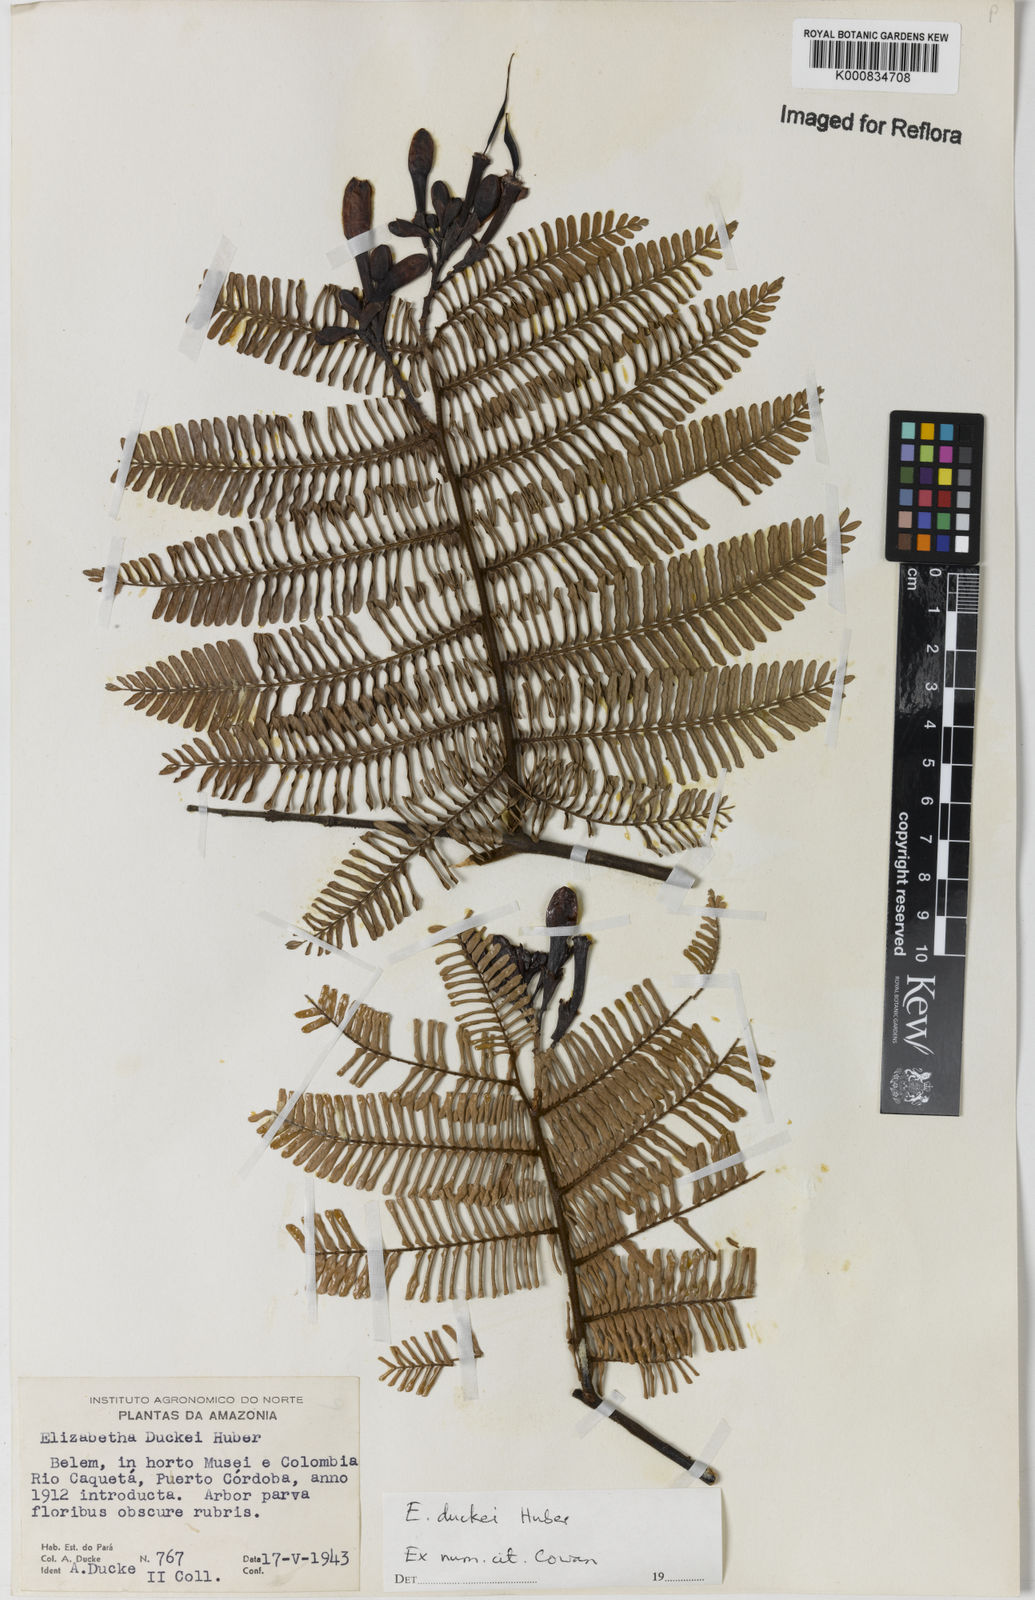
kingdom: Plantae
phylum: Tracheophyta
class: Magnoliopsida
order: Fabales
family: Fabaceae
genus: Paloue
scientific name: Paloue duckei
